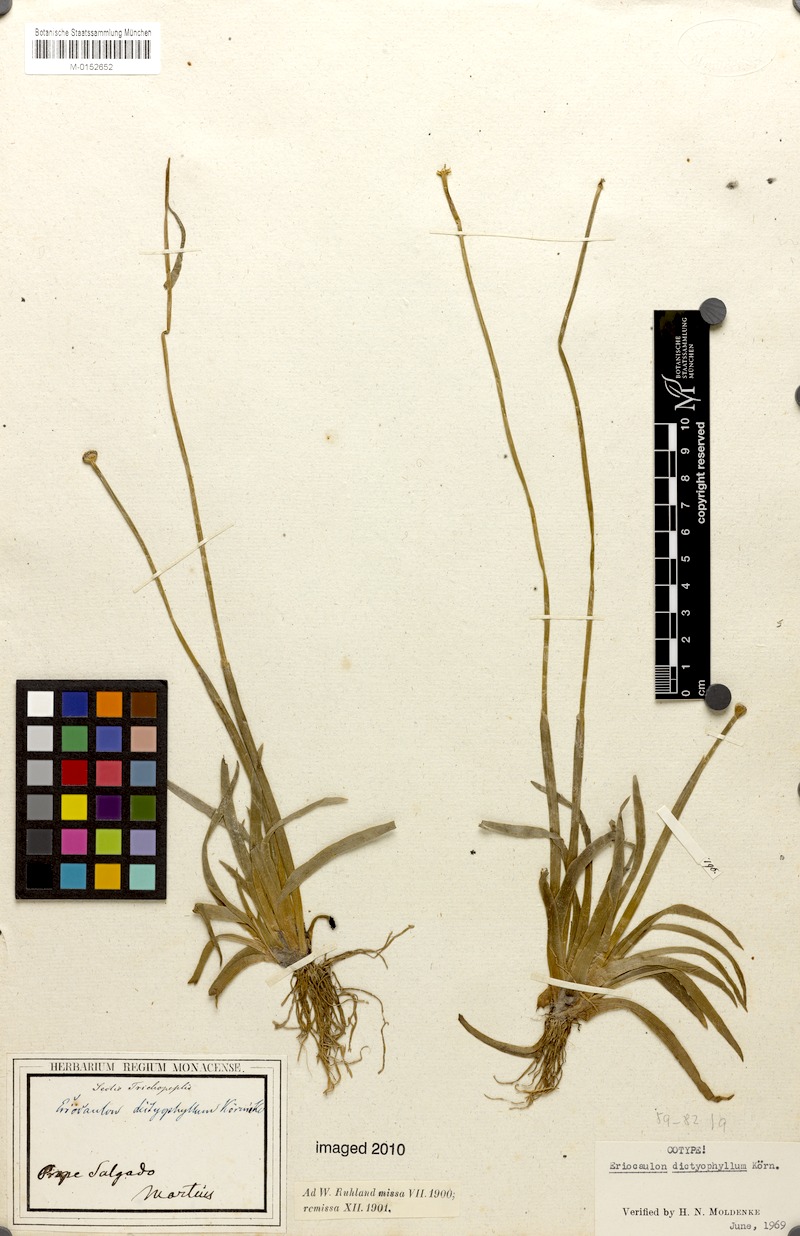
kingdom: Plantae
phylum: Tracheophyta
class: Liliopsida
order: Poales
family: Eriocaulaceae
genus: Eriocaulon
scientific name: Eriocaulon dictyophyllum
